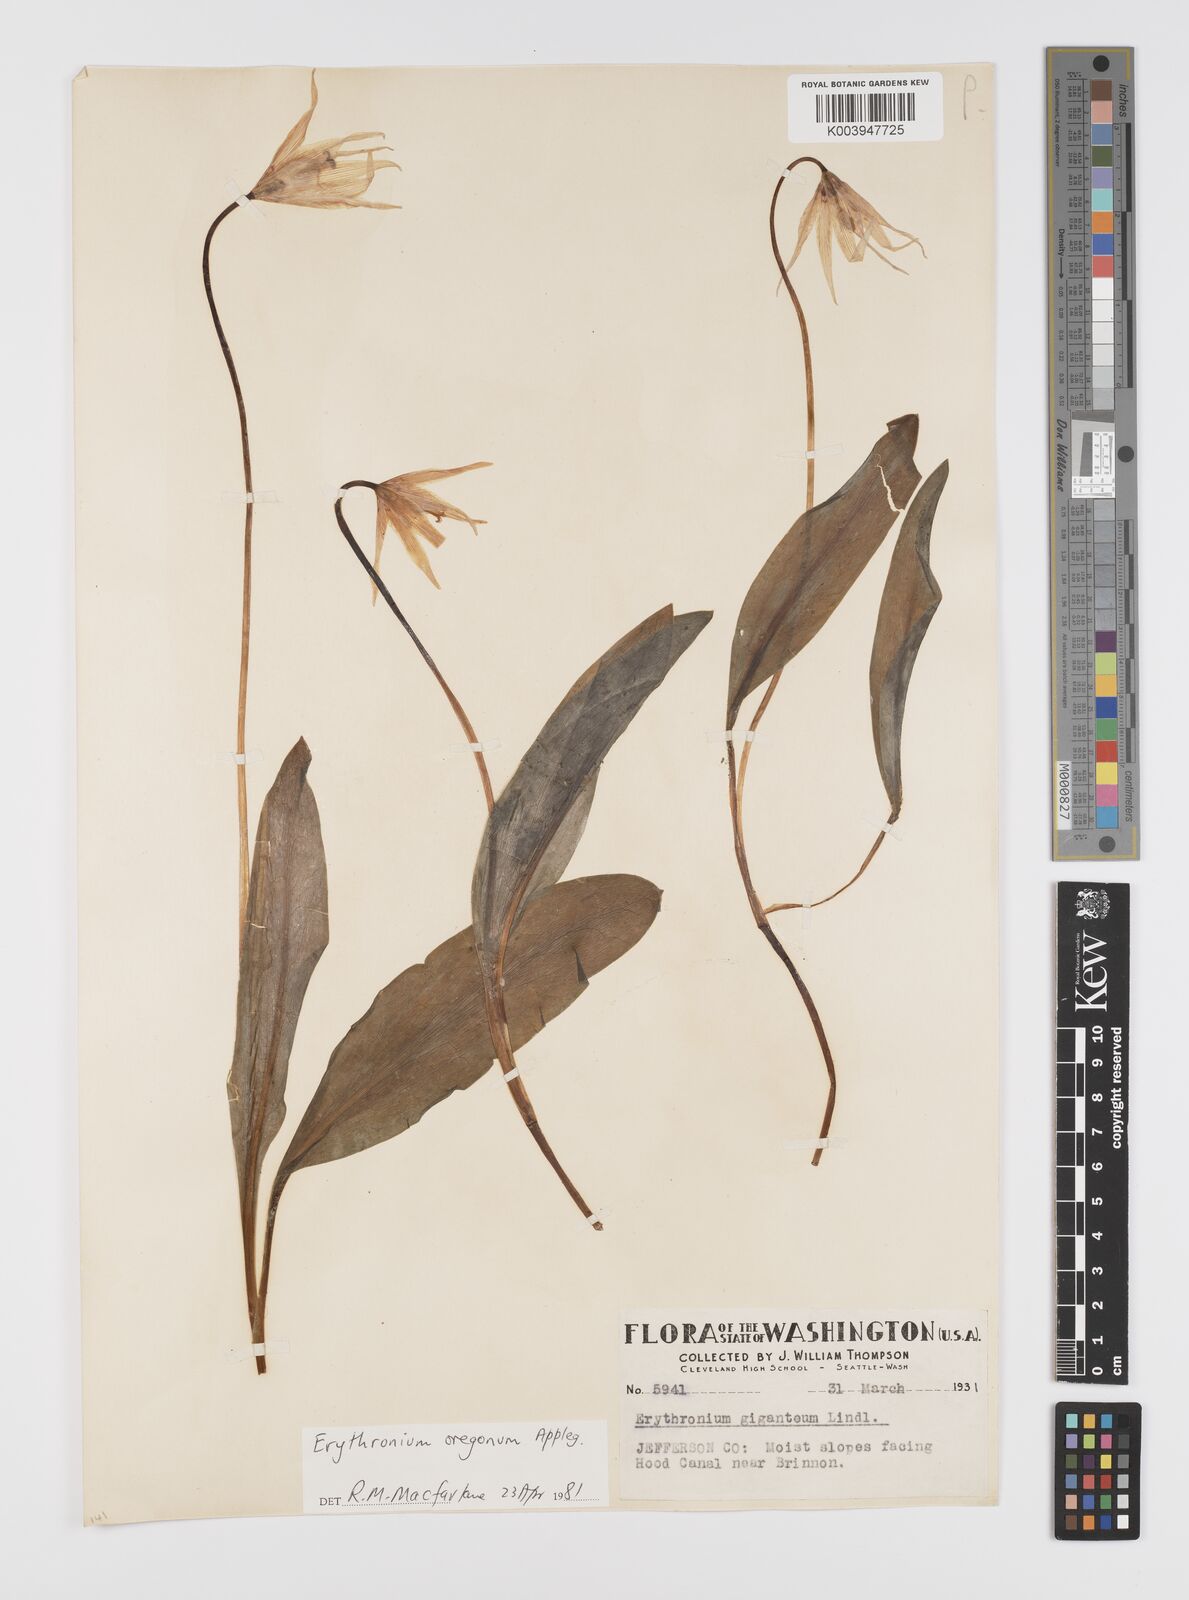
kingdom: Plantae
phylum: Tracheophyta
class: Liliopsida
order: Liliales
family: Liliaceae
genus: Erythronium
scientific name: Erythronium oregonum
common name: Giant adder's-tongue
